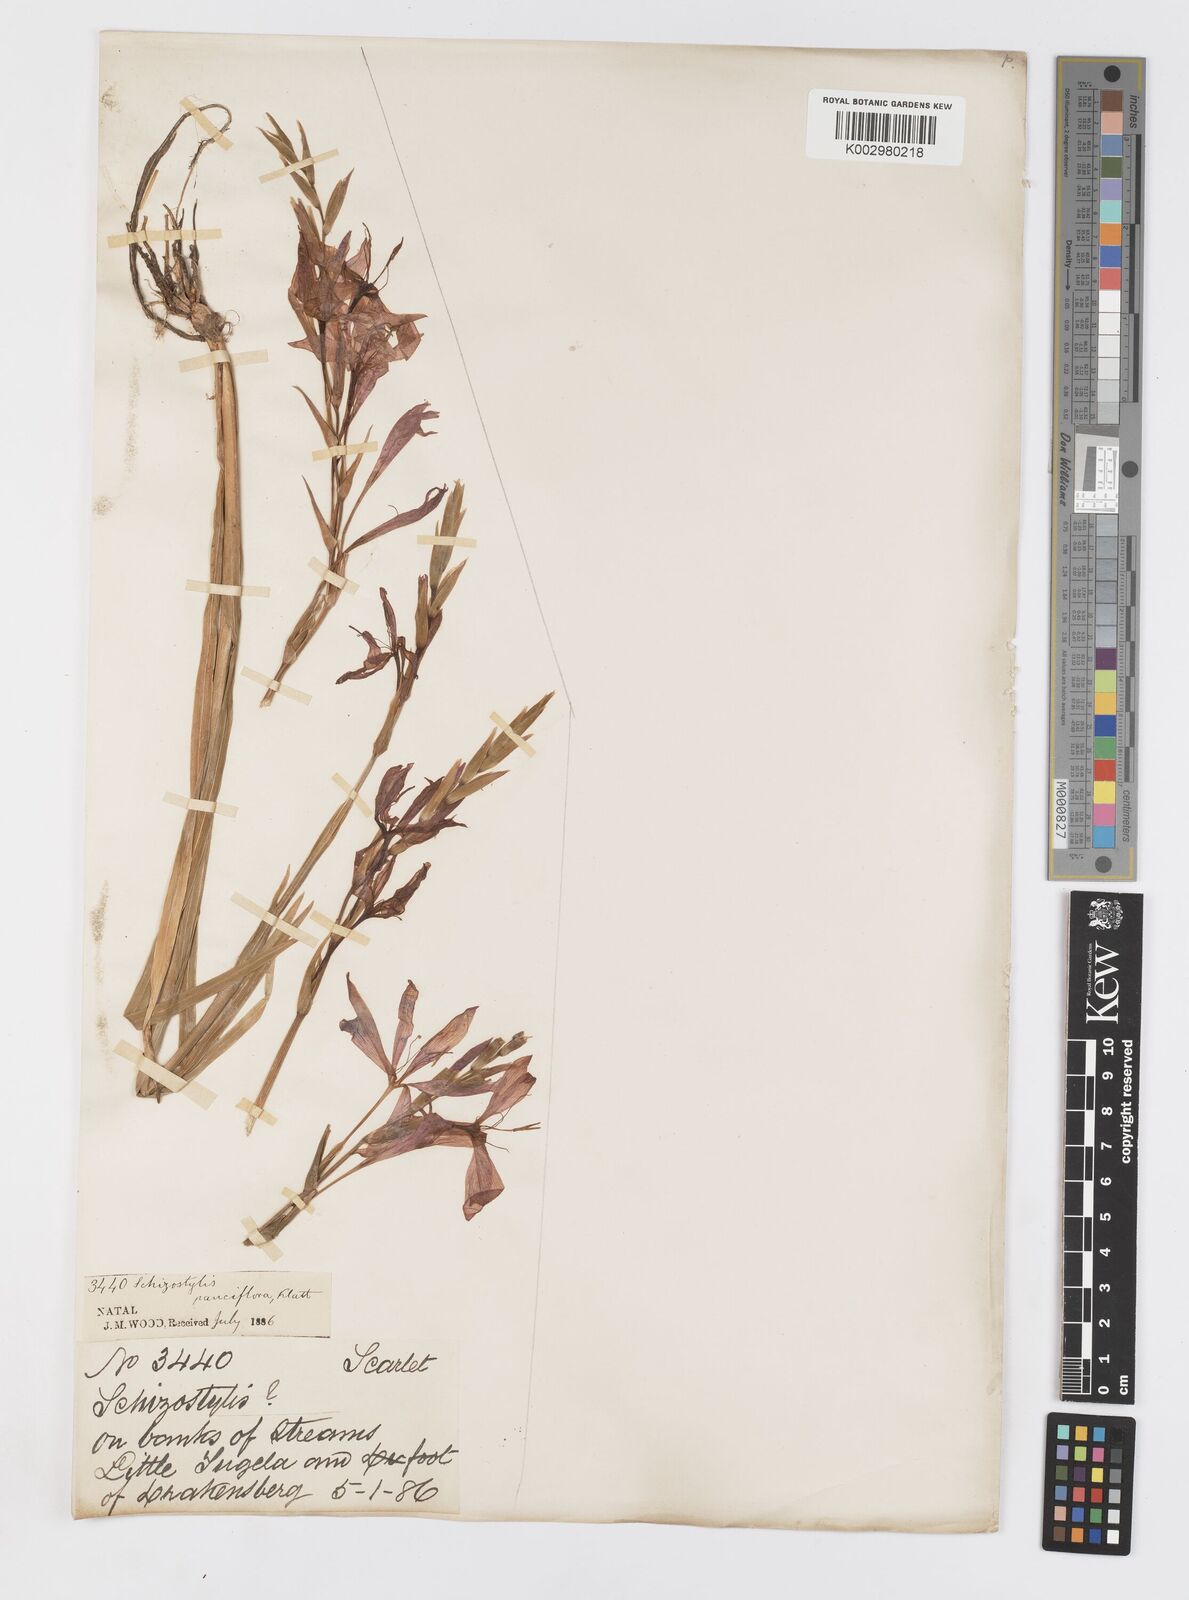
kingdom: Plantae
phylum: Tracheophyta
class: Liliopsida
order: Asparagales
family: Iridaceae
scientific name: Iridaceae
